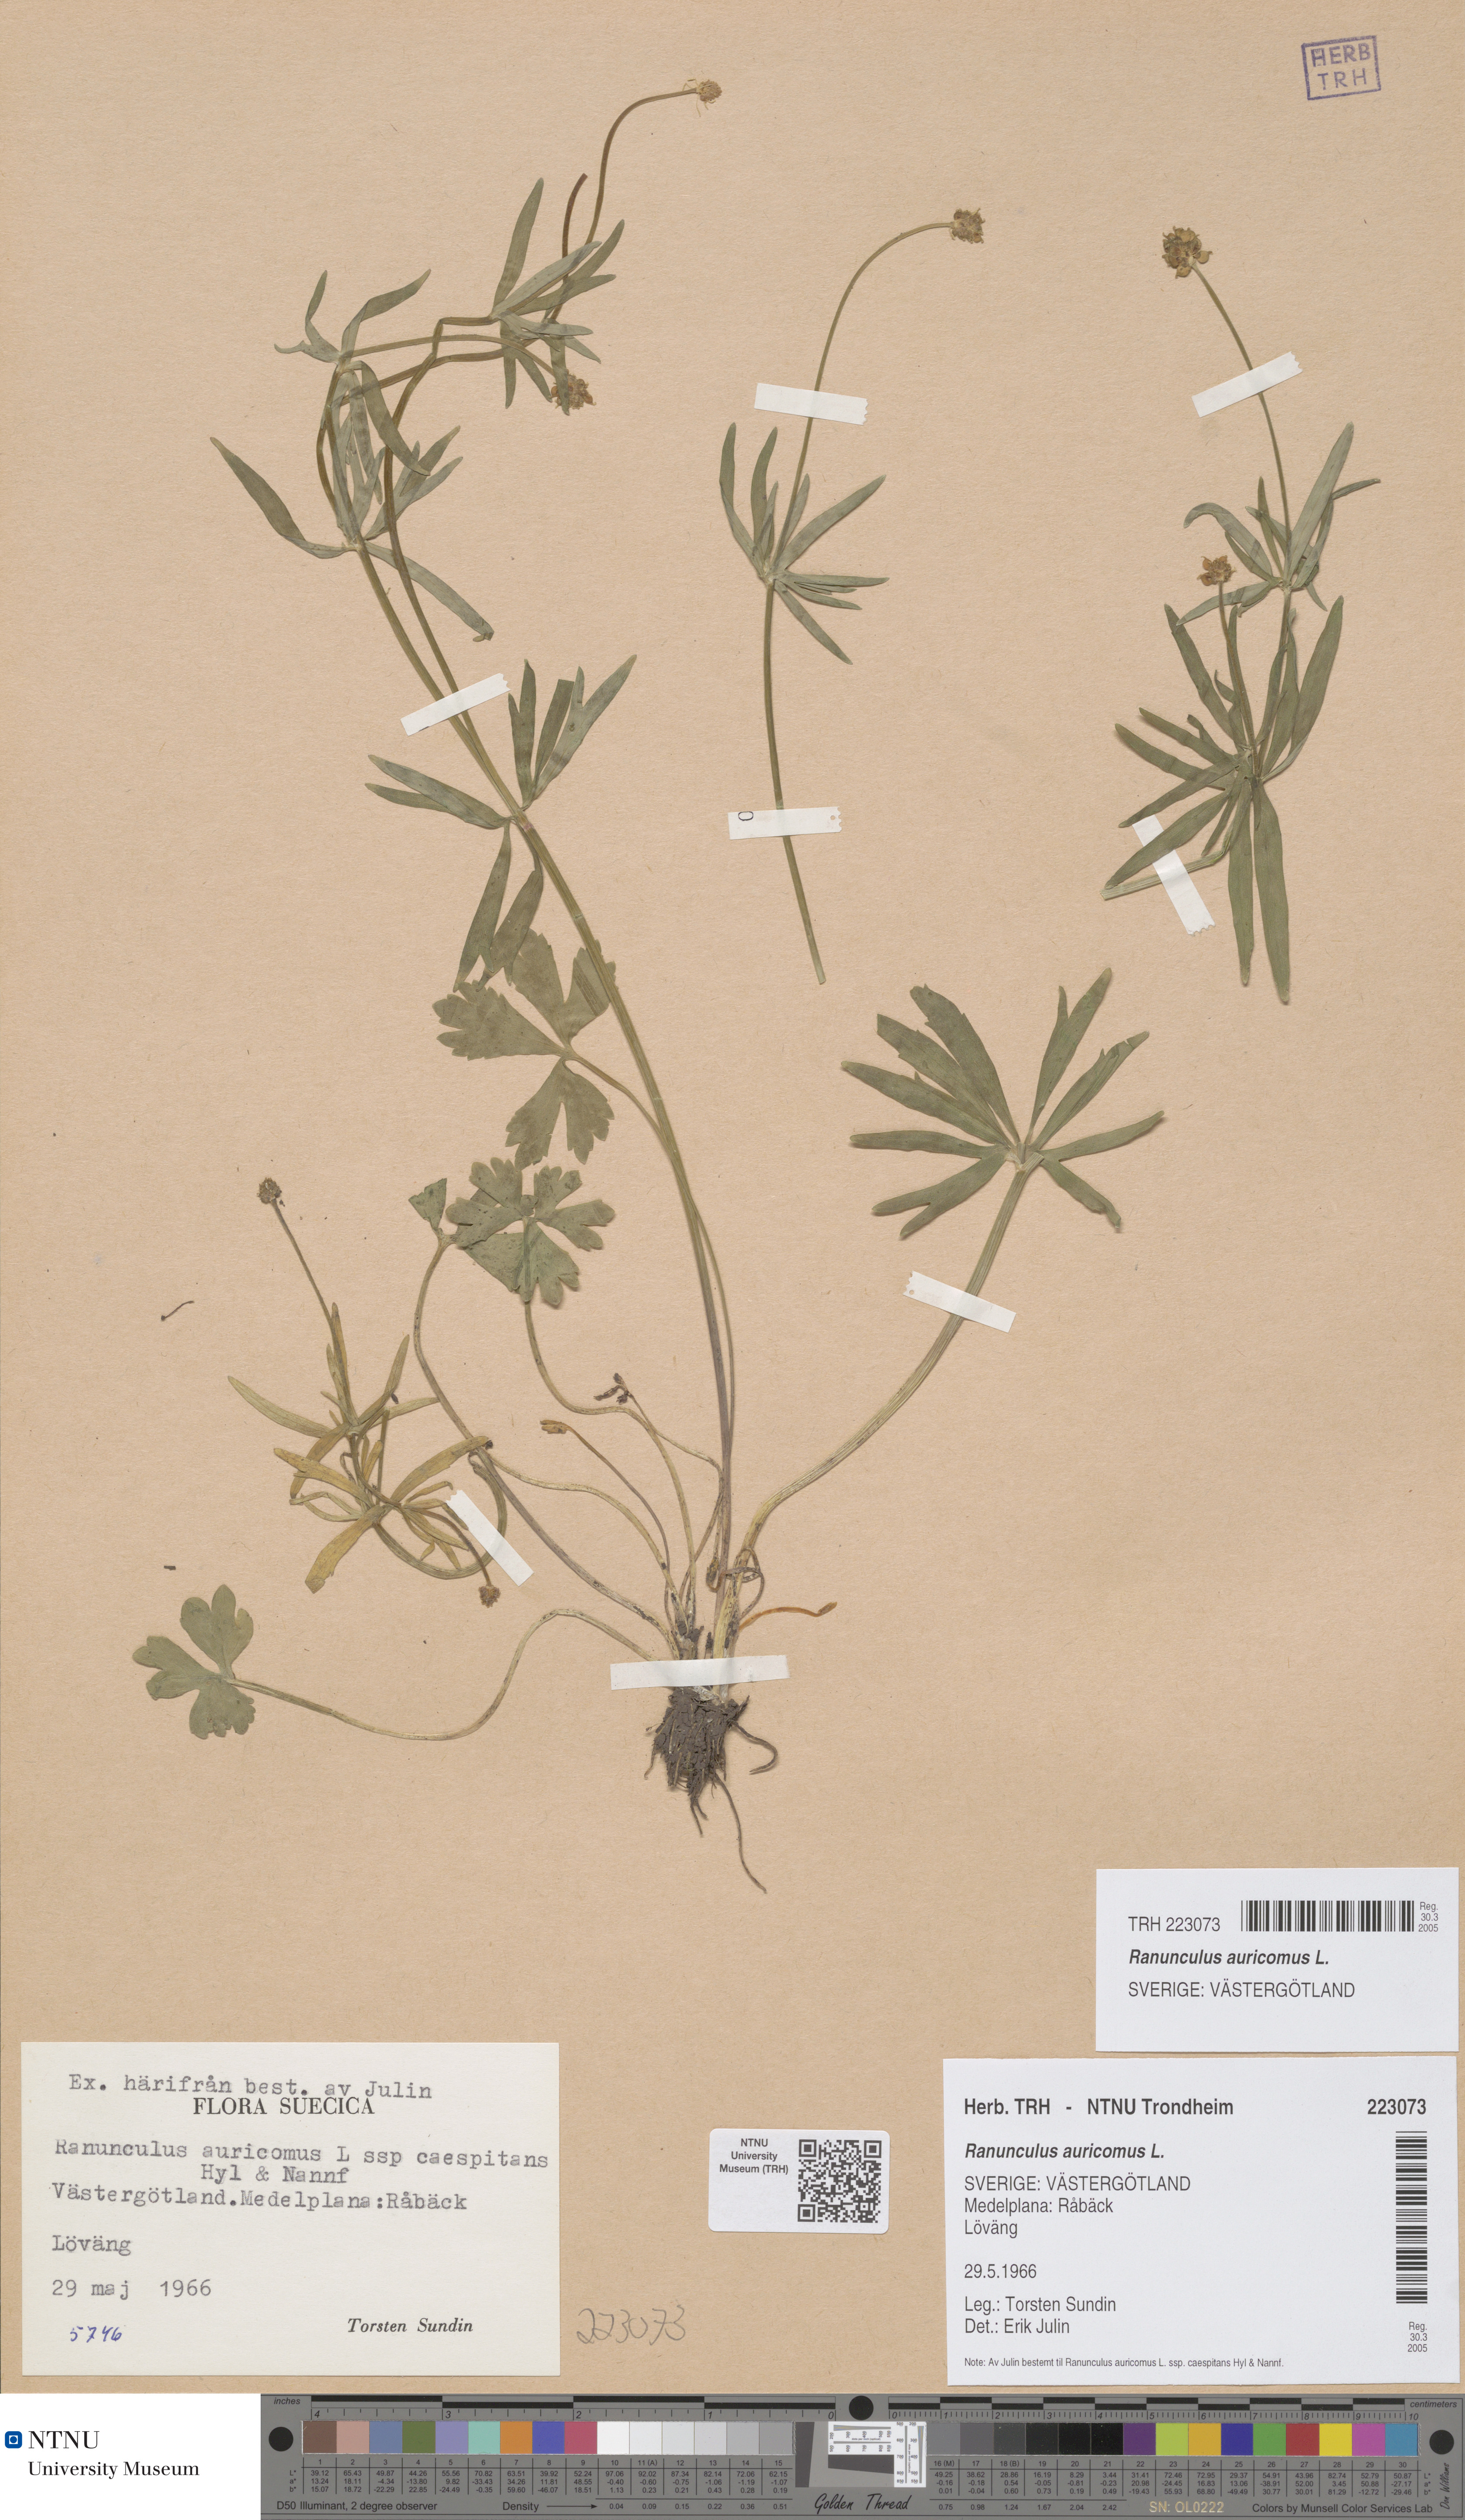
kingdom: Plantae
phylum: Tracheophyta
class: Magnoliopsida
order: Ranunculales
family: Ranunculaceae
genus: Ranunculus
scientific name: Ranunculus auricomus
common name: Goldilocks buttercup
